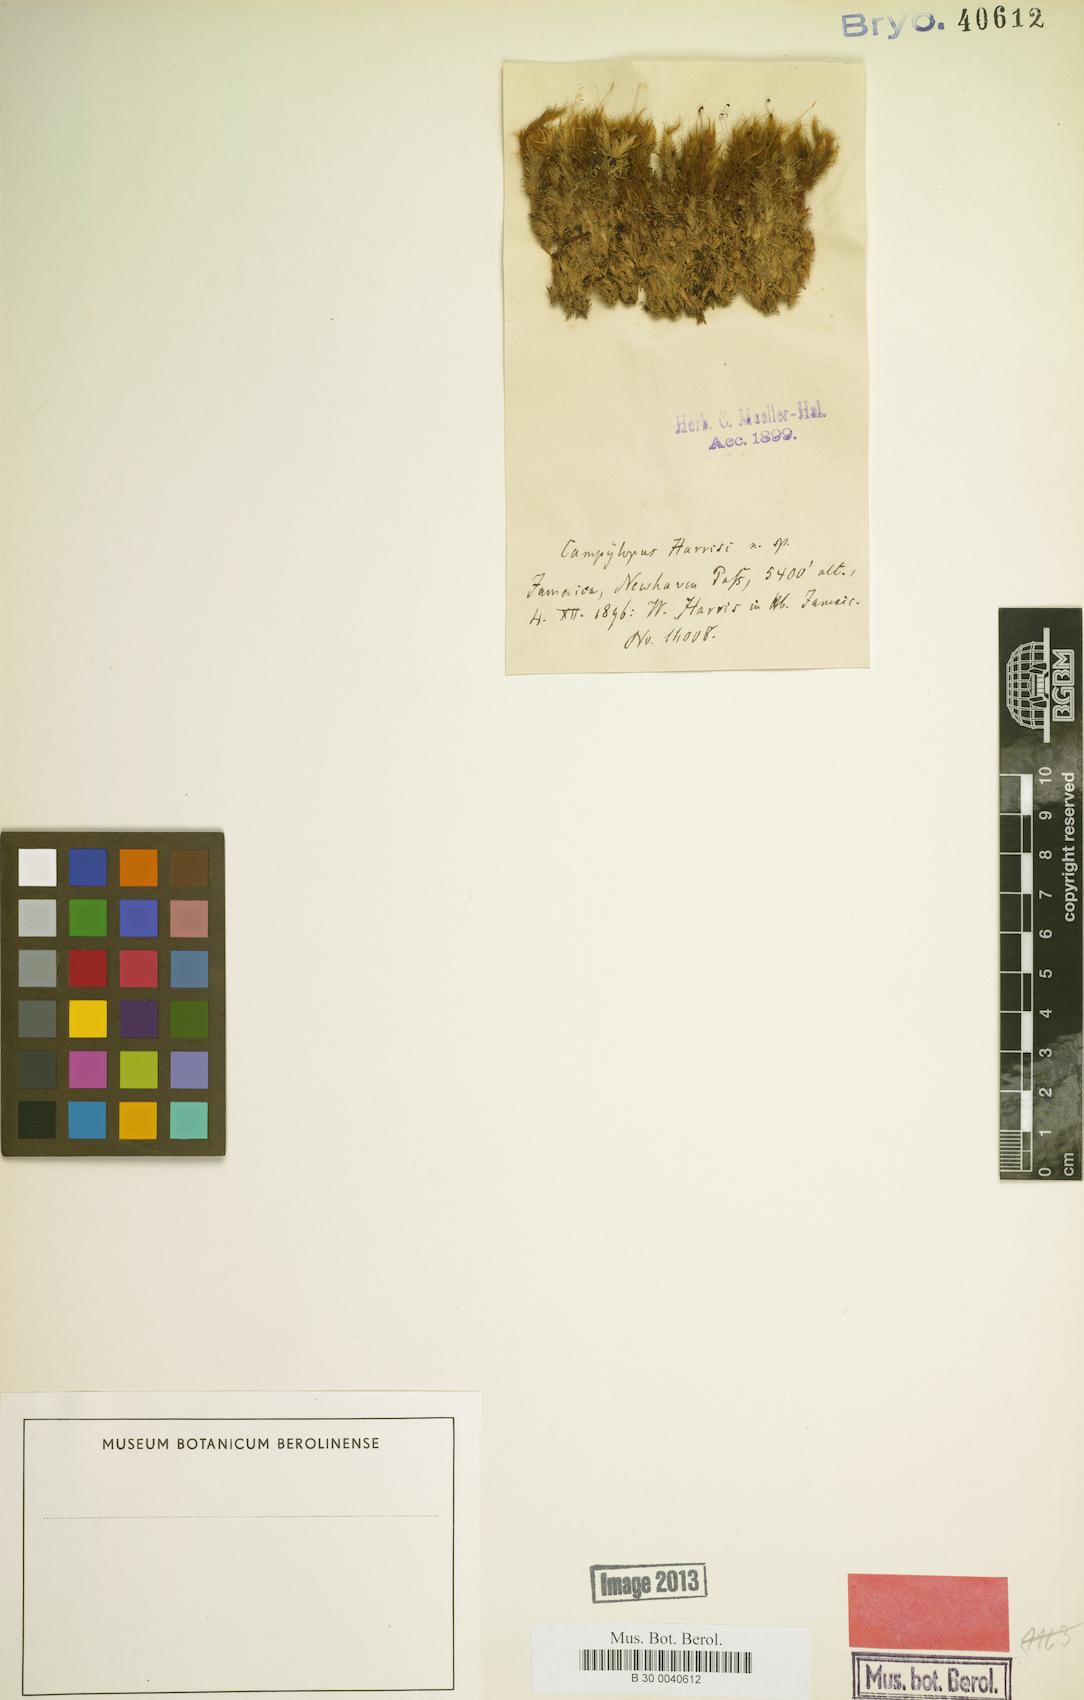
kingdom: Plantae
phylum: Bryophyta
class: Bryopsida
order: Dicranales
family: Leucobryaceae
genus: Campylopus
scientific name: Campylopus cubensis
